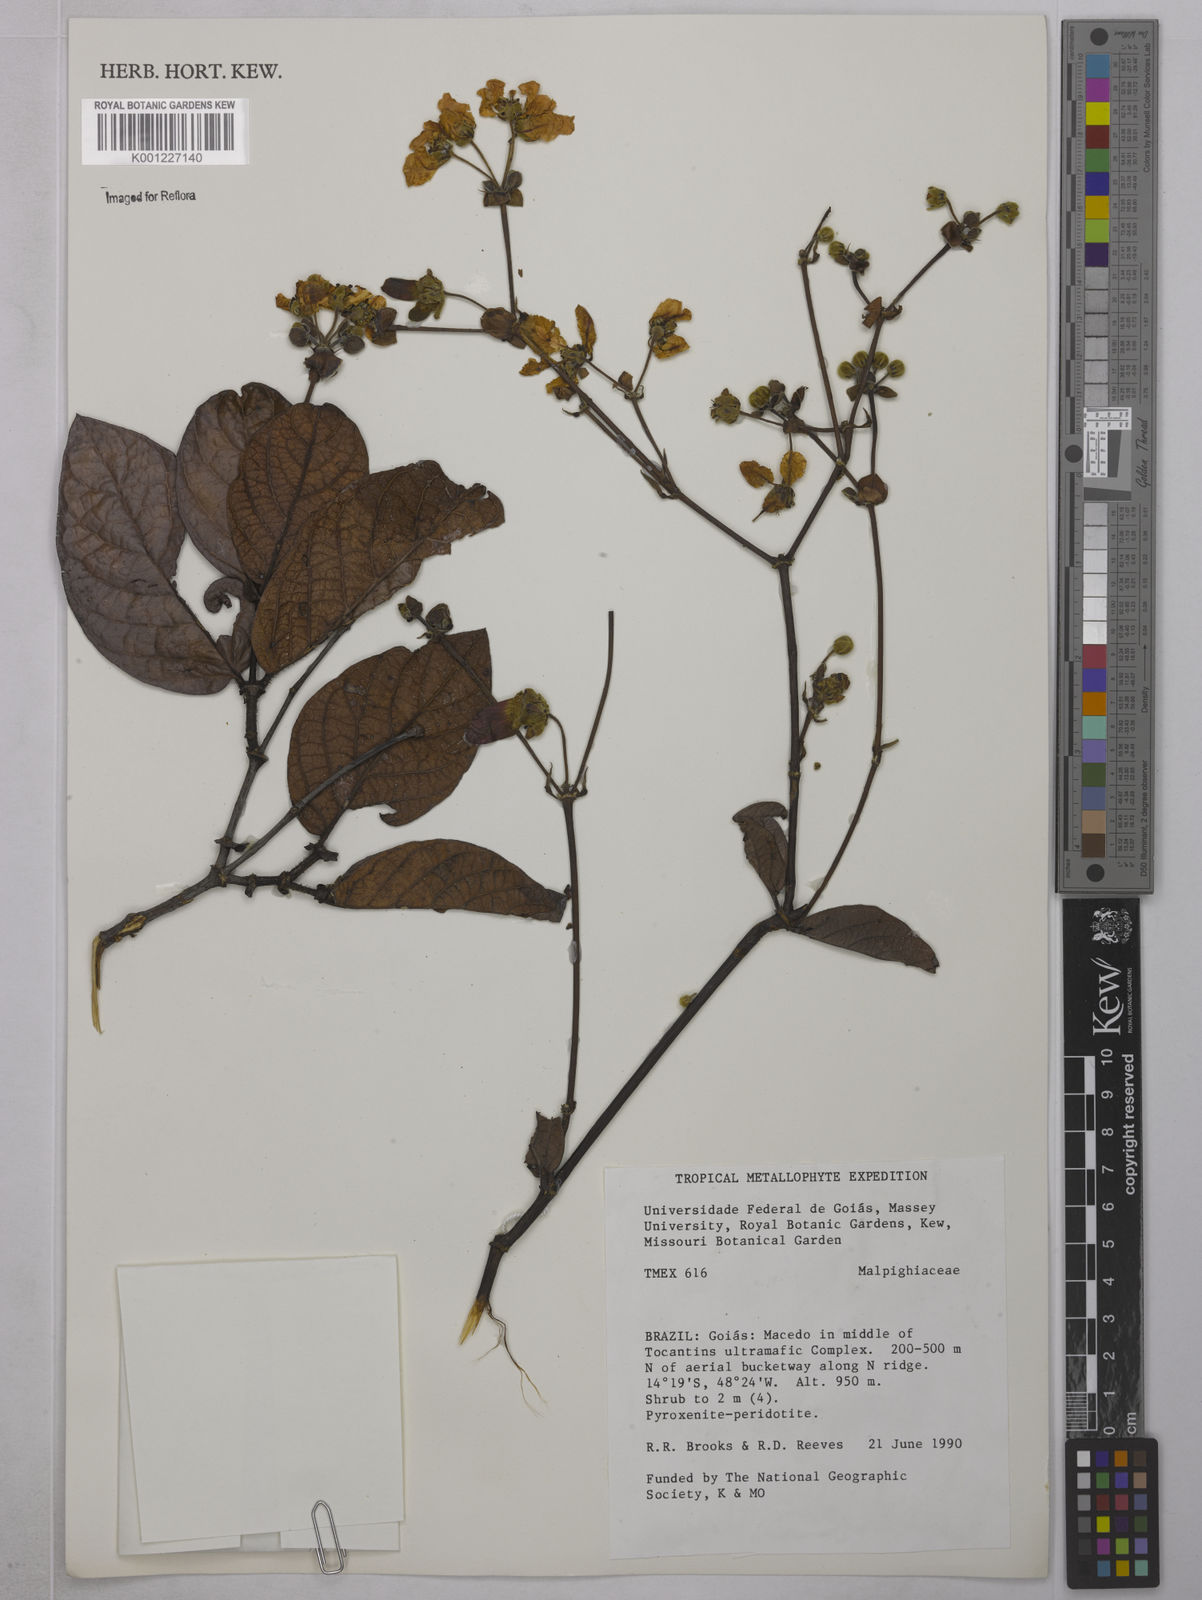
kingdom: Plantae
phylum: Tracheophyta
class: Magnoliopsida
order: Malpighiales
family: Malpighiaceae
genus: Peixotoa
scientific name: Peixotoa
